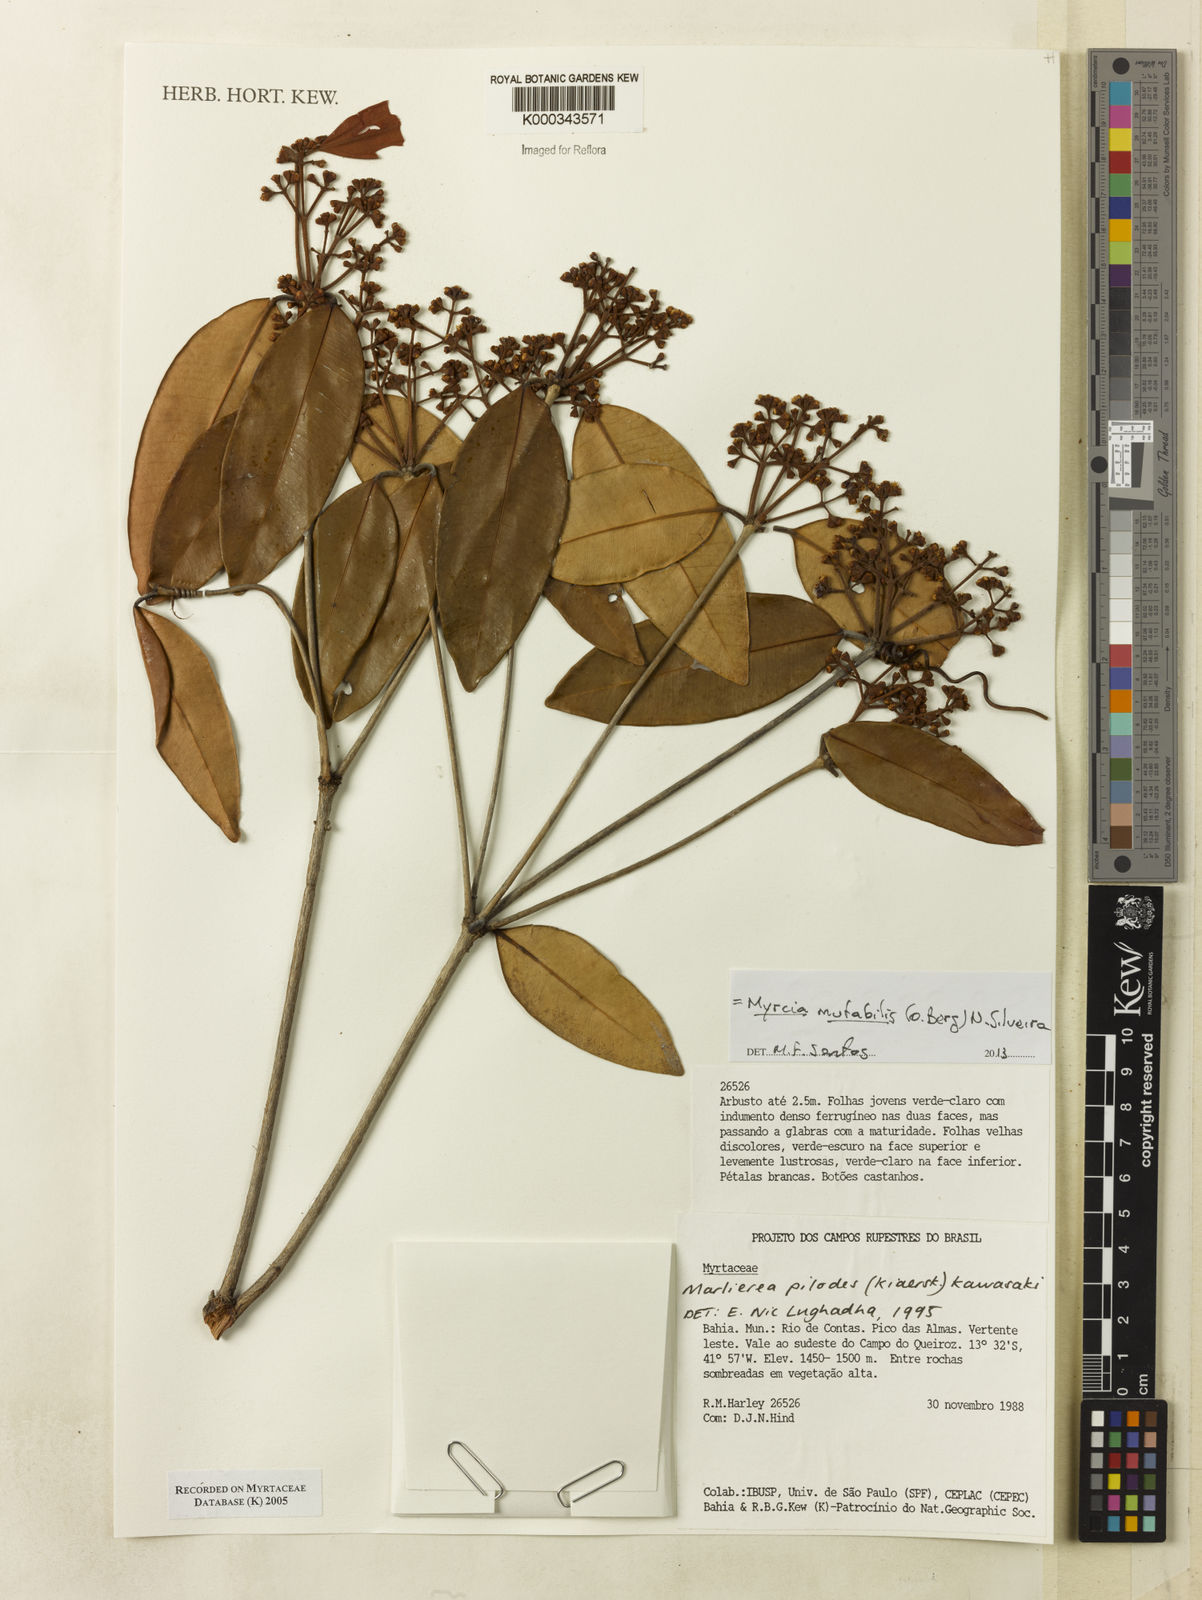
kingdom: Plantae
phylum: Tracheophyta
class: Magnoliopsida
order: Myrtales
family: Myrtaceae
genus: Myrcia
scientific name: Myrcia mutabilis
